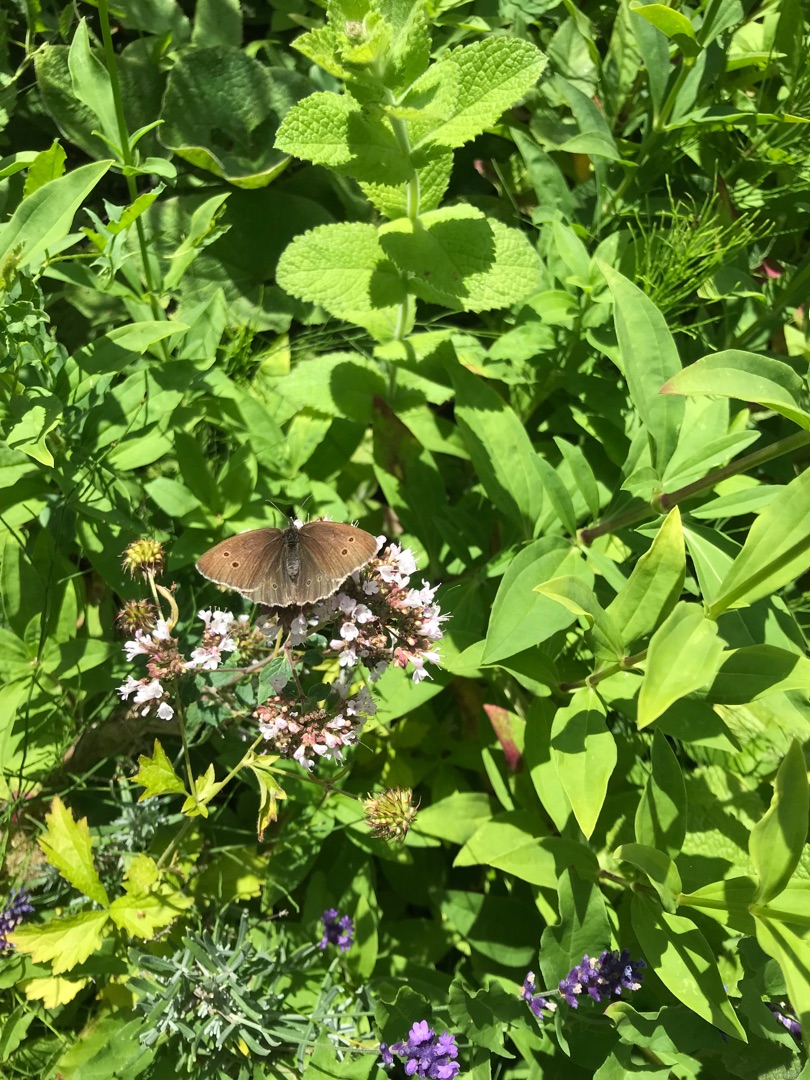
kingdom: Animalia
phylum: Arthropoda
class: Insecta
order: Lepidoptera
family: Nymphalidae
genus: Aphantopus
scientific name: Aphantopus hyperantus
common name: Engrandøje
